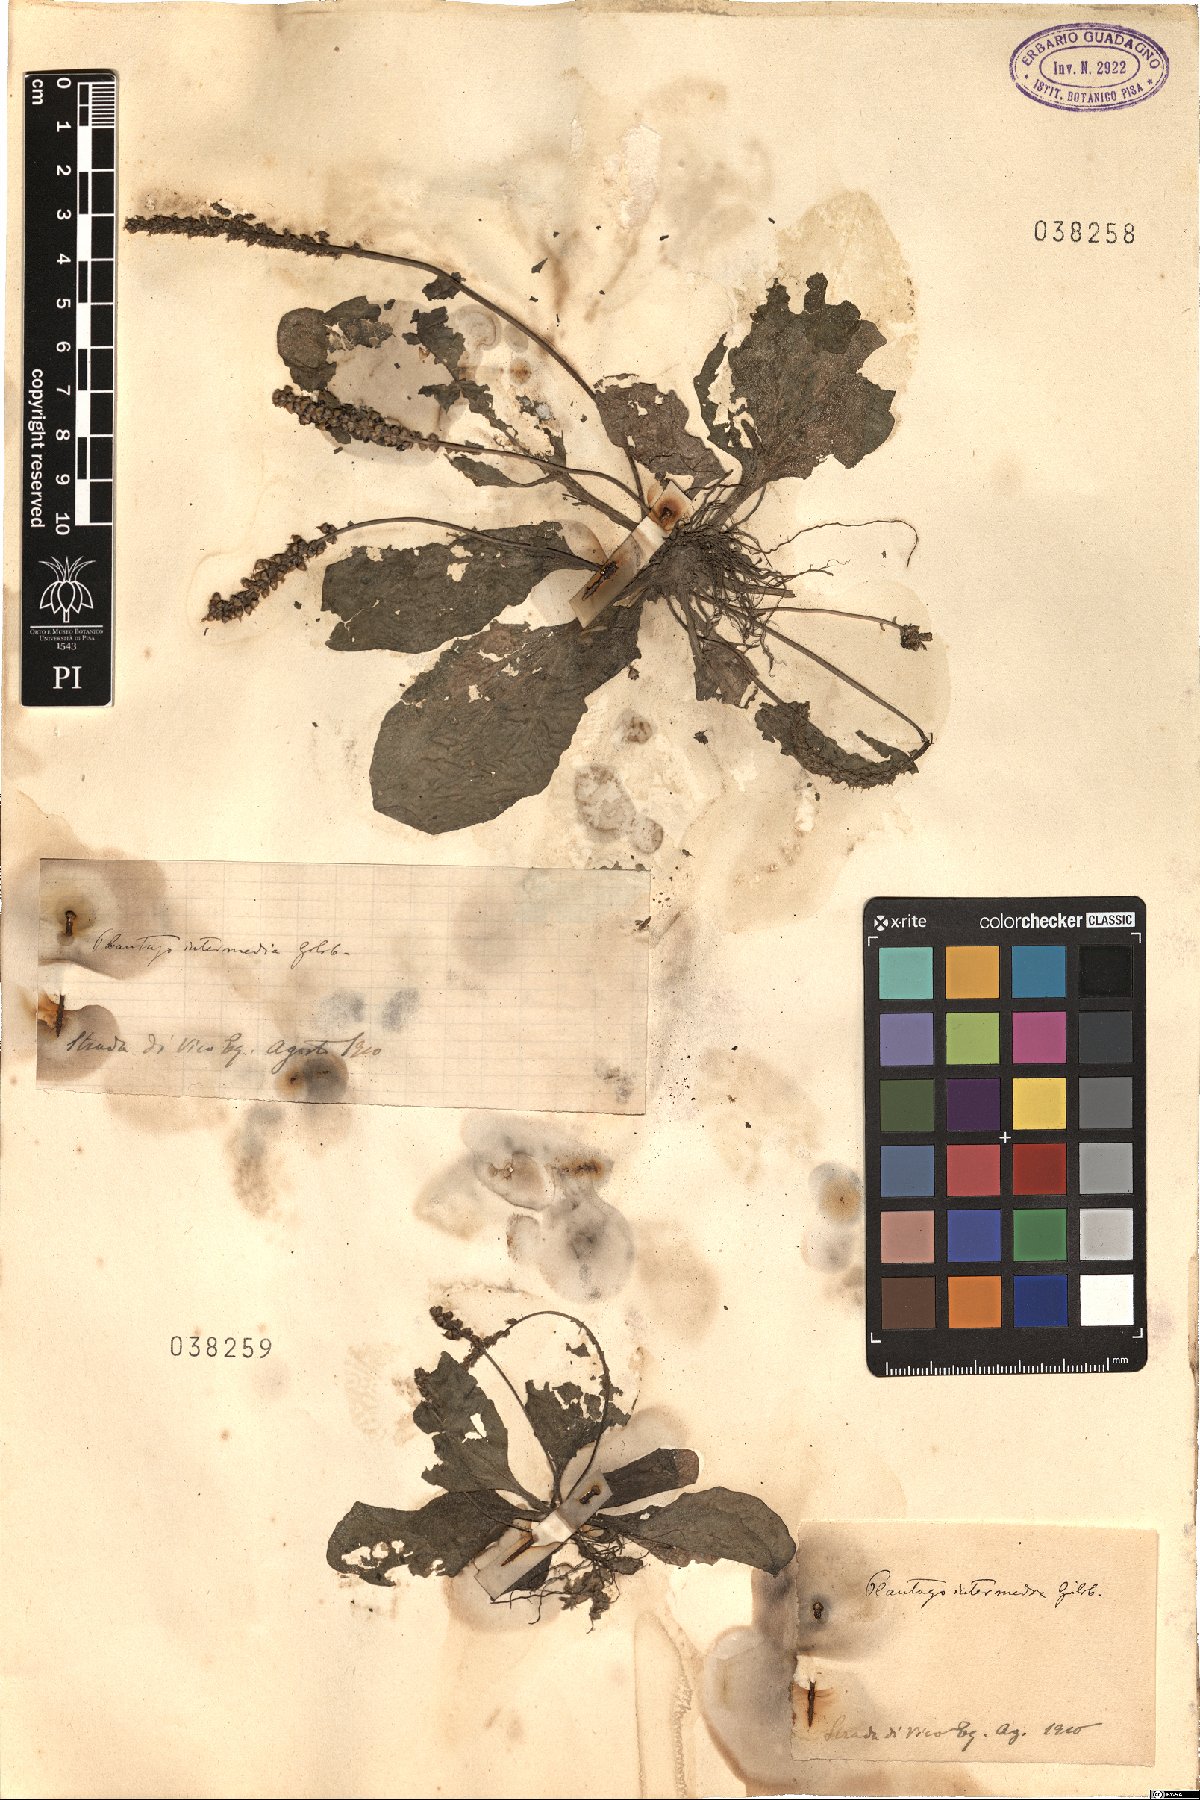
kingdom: Plantae
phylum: Tracheophyta
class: Magnoliopsida
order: Lamiales
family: Plantaginaceae
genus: Plantago
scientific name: Plantago uliginosa
